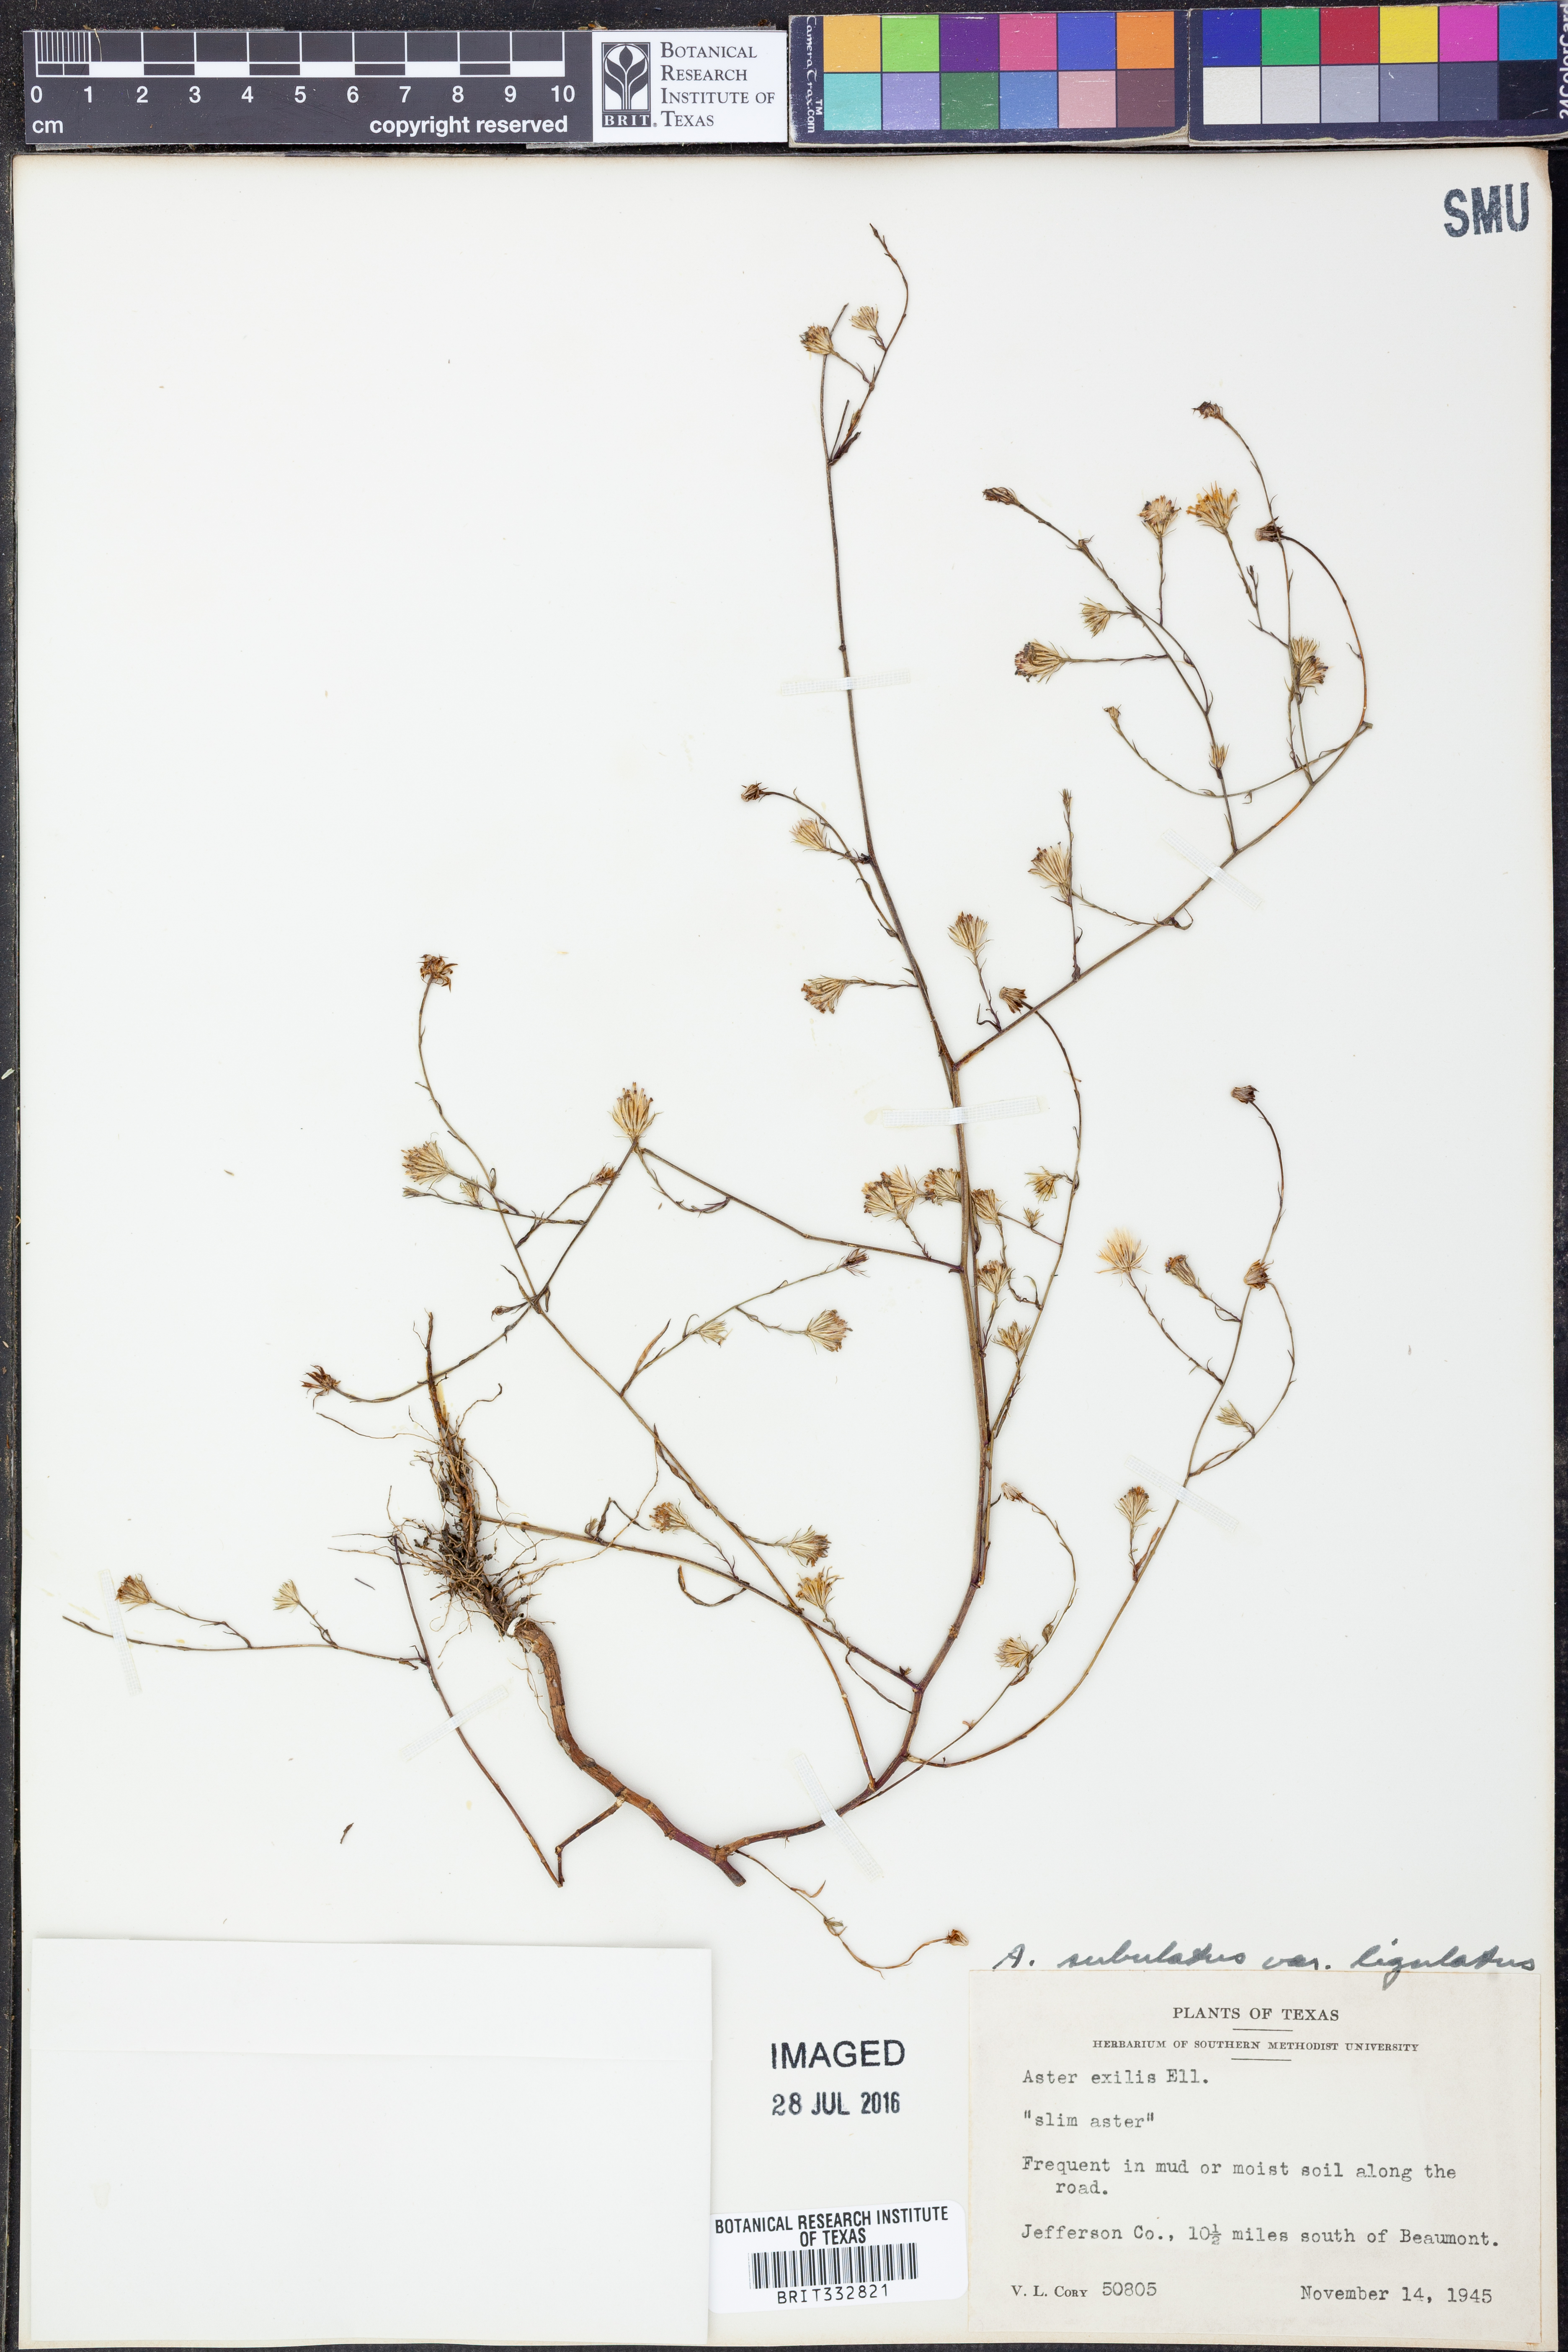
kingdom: Plantae
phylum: Tracheophyta
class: Magnoliopsida
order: Asterales
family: Asteraceae
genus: Symphyotrichum
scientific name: Symphyotrichum divaricatum
